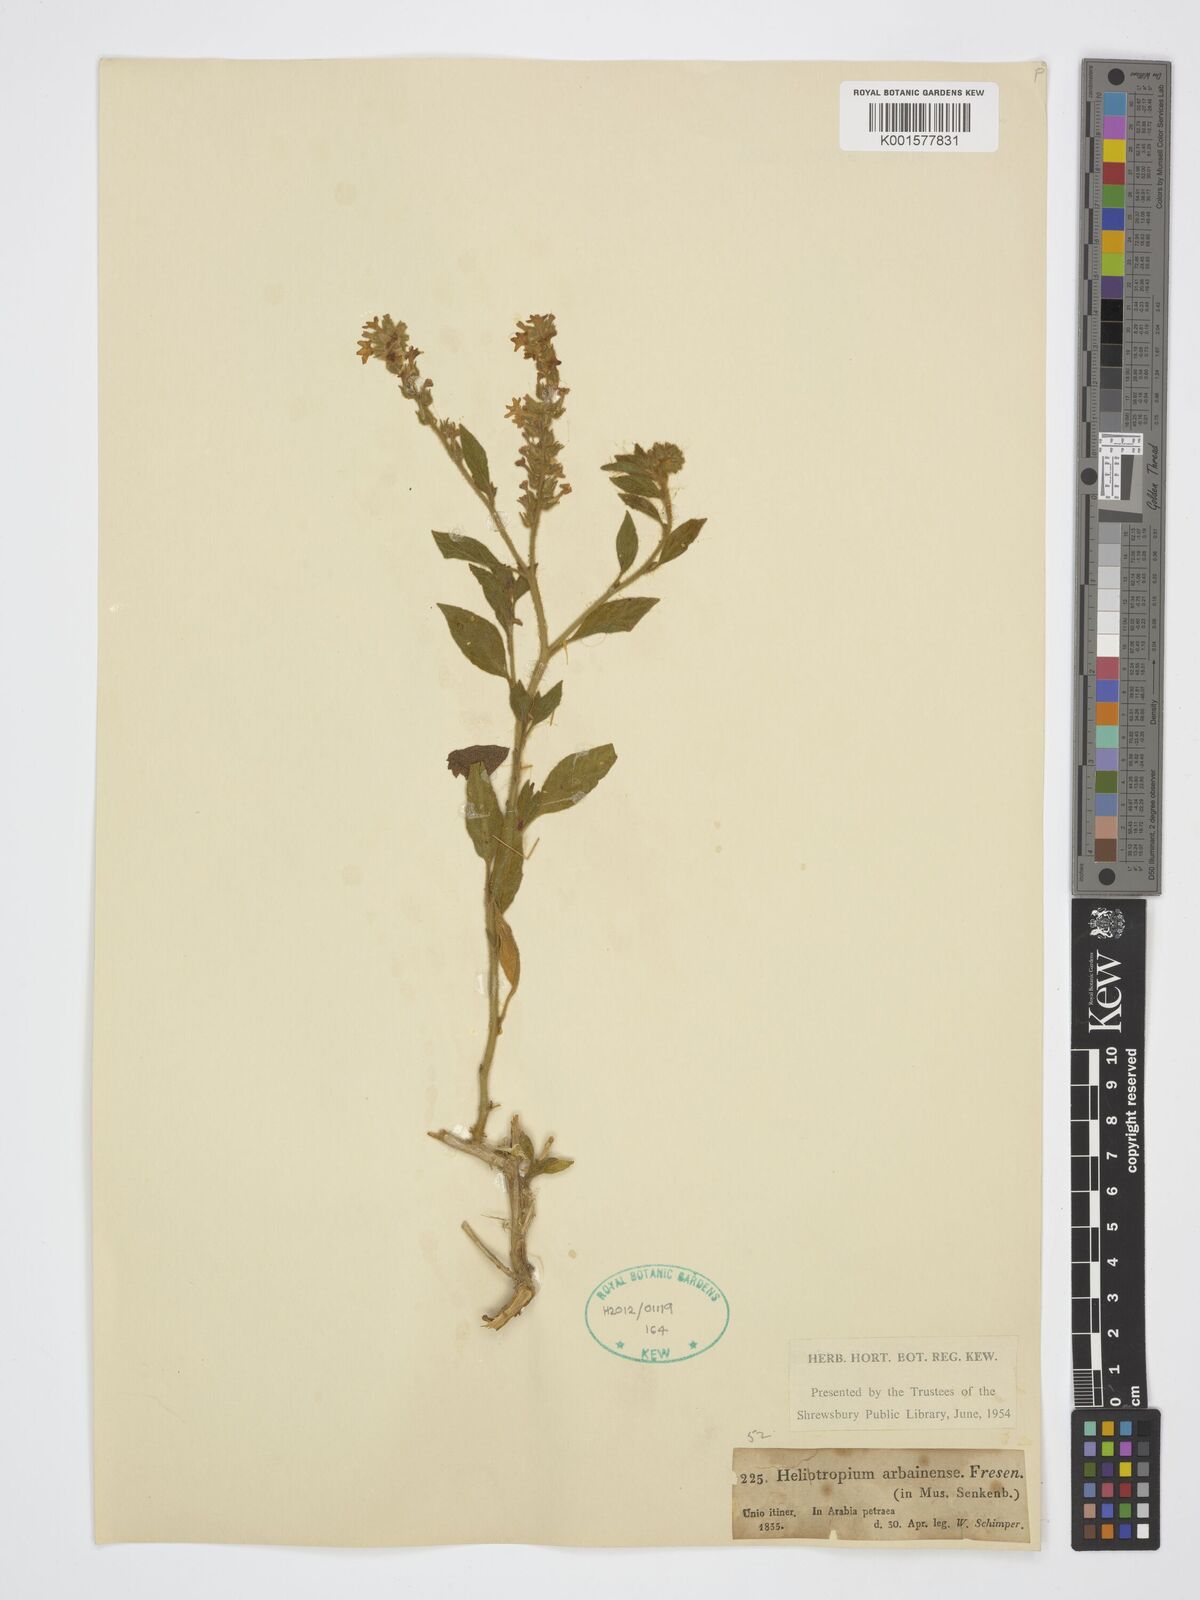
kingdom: Plantae
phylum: Tracheophyta
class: Magnoliopsida
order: Boraginales
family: Heliotropiaceae
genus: Heliotropium
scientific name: Heliotropium arbainense
